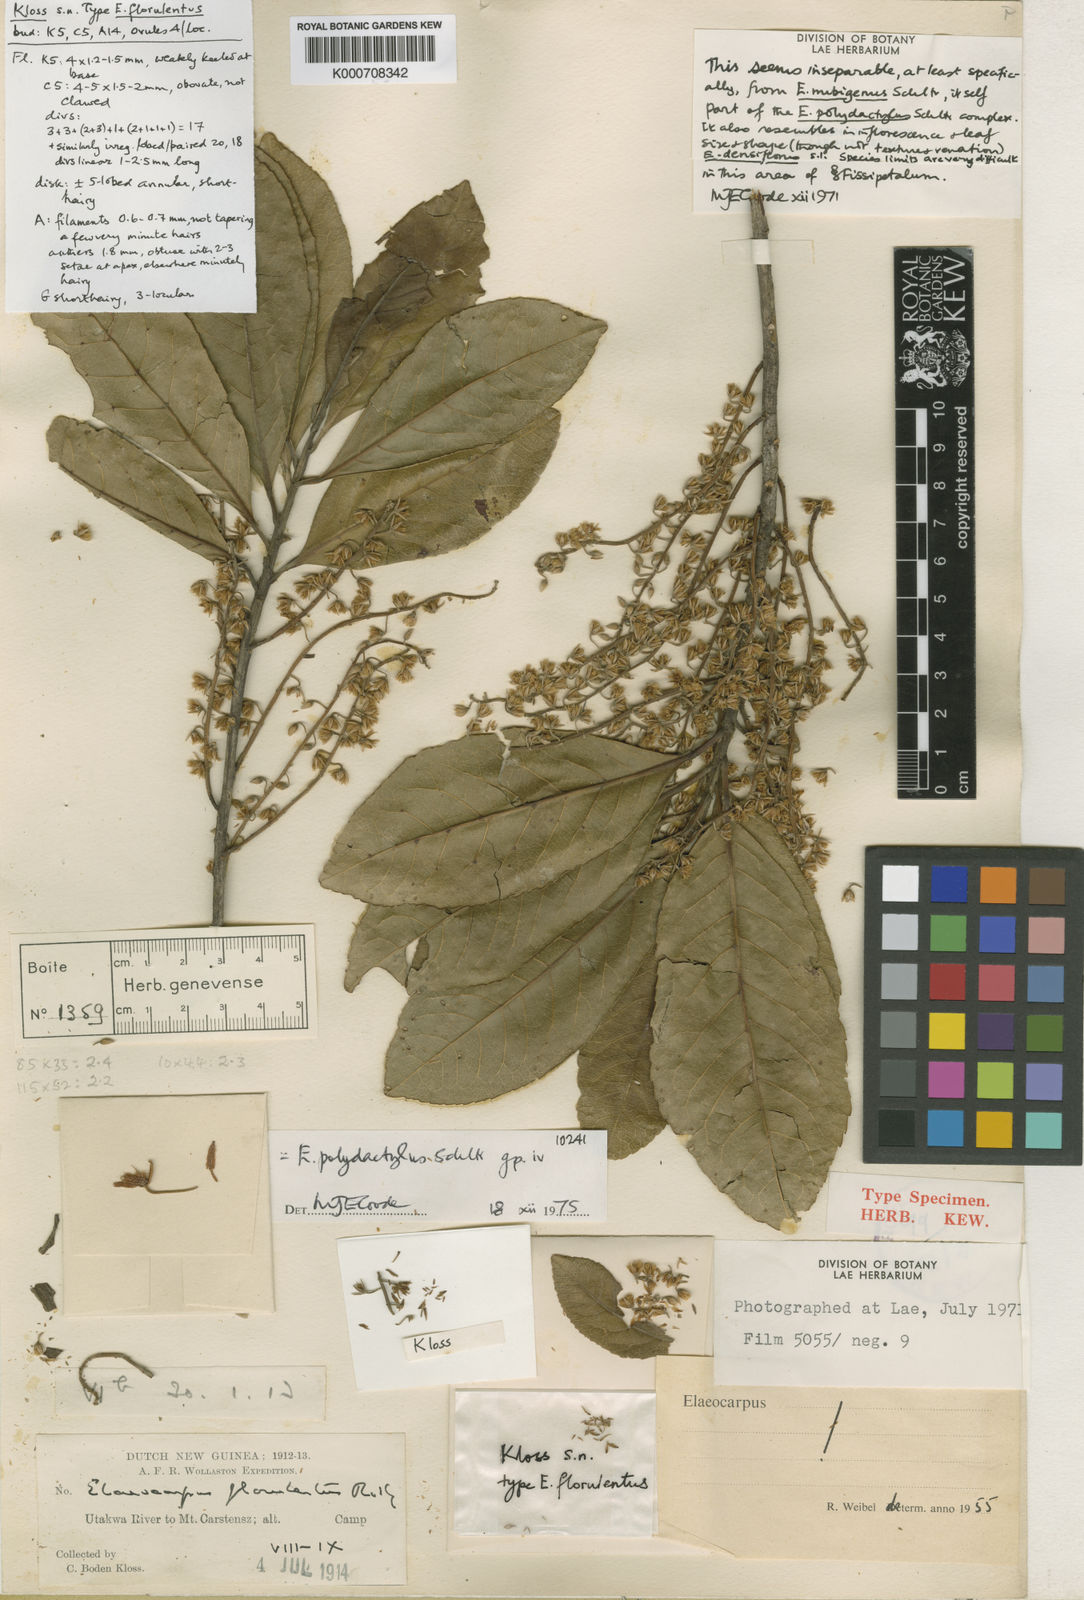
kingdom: Plantae
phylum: Tracheophyta
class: Magnoliopsida
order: Oxalidales
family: Elaeocarpaceae
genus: Elaeocarpus
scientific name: Elaeocarpus polydactylus
